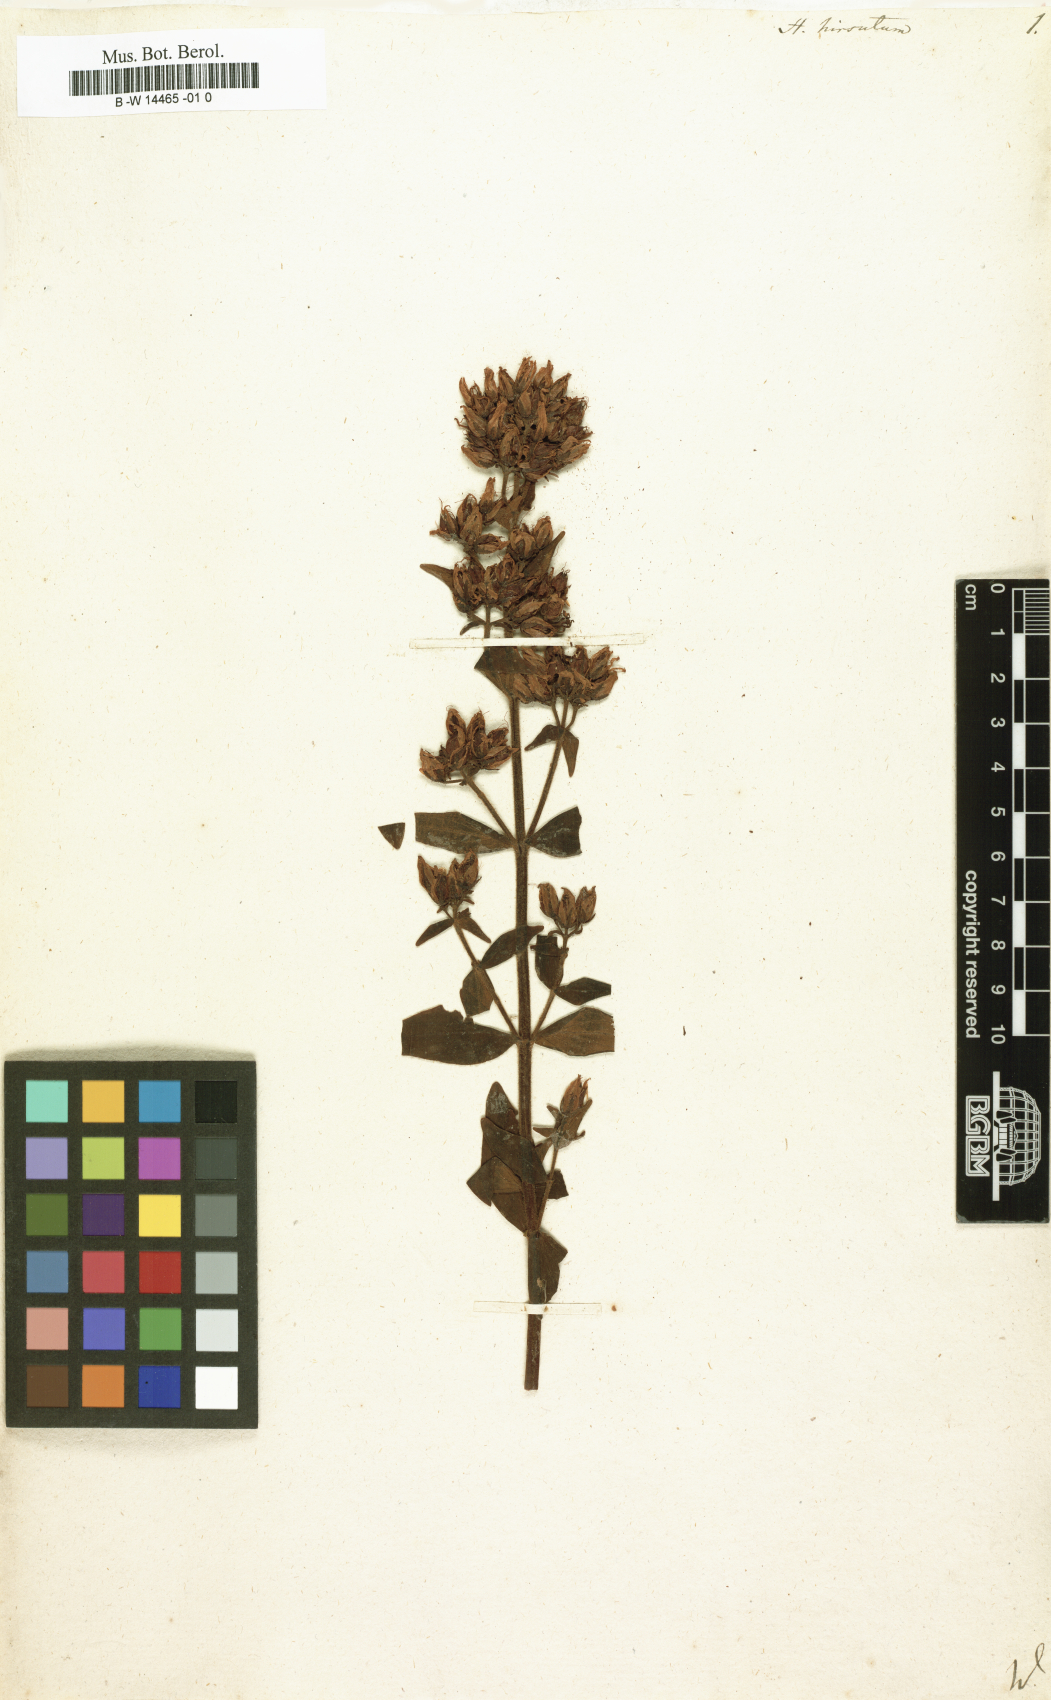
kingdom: Plantae
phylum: Tracheophyta
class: Magnoliopsida
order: Malpighiales
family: Hypericaceae
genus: Hypericum
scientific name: Hypericum hirsutum
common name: Hairy st. john's-wort
